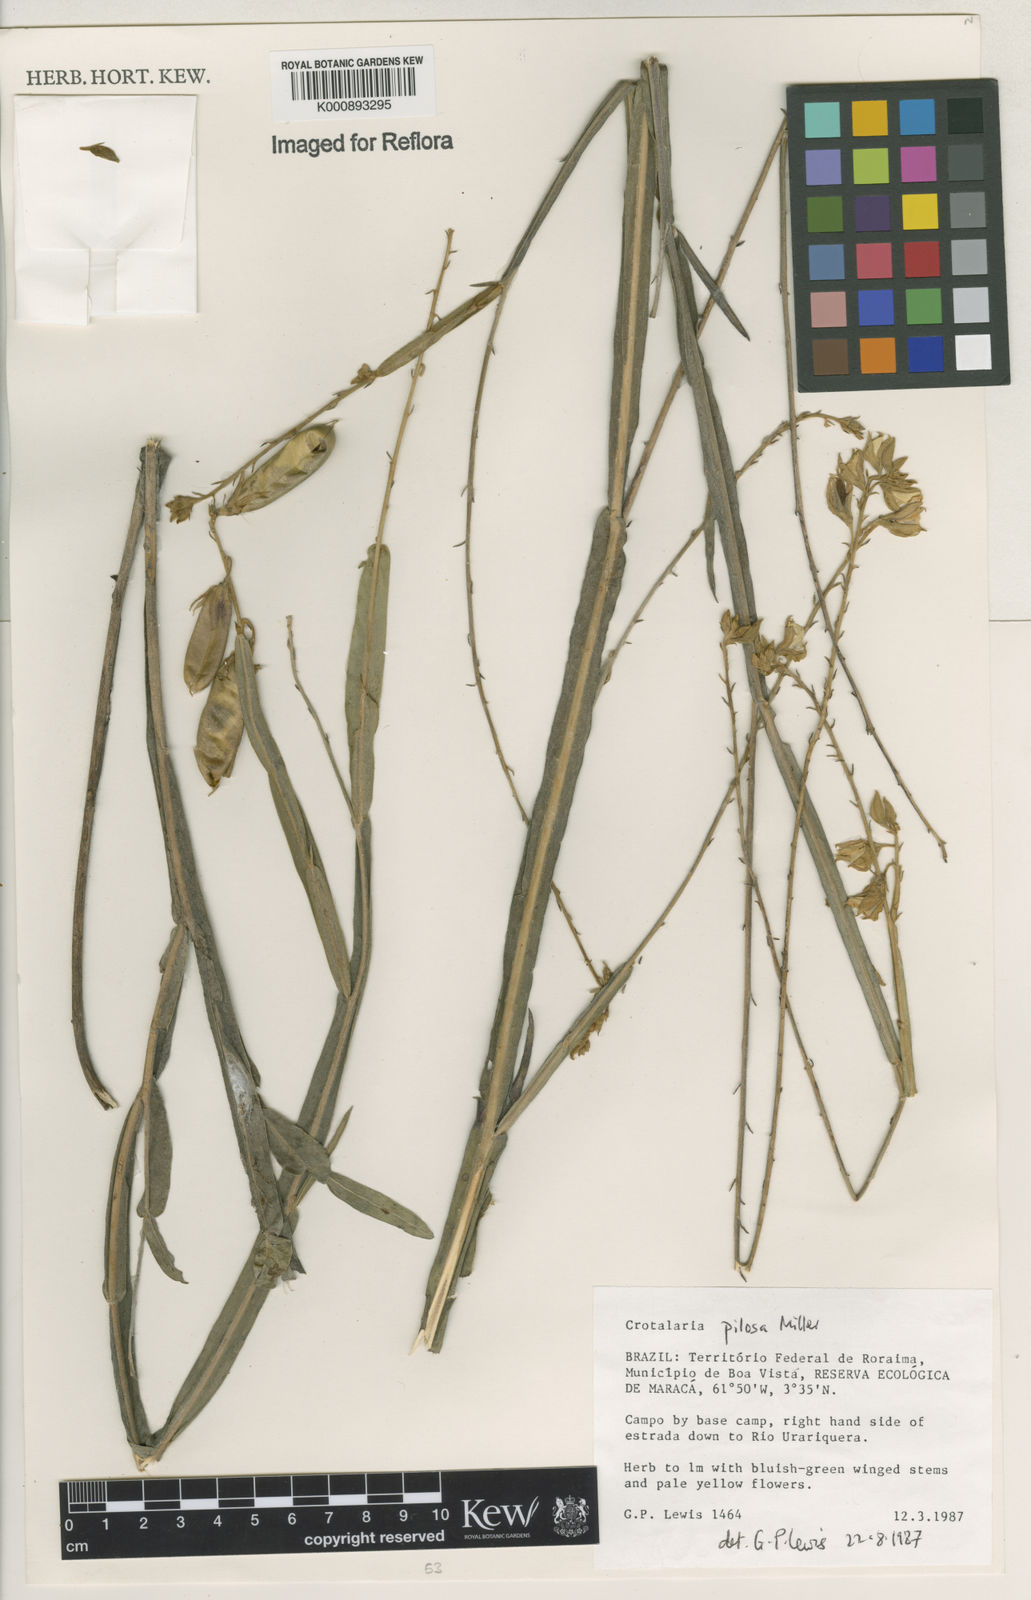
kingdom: Plantae
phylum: Tracheophyta
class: Magnoliopsida
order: Fabales
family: Fabaceae
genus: Crotalaria
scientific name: Crotalaria pilosa
